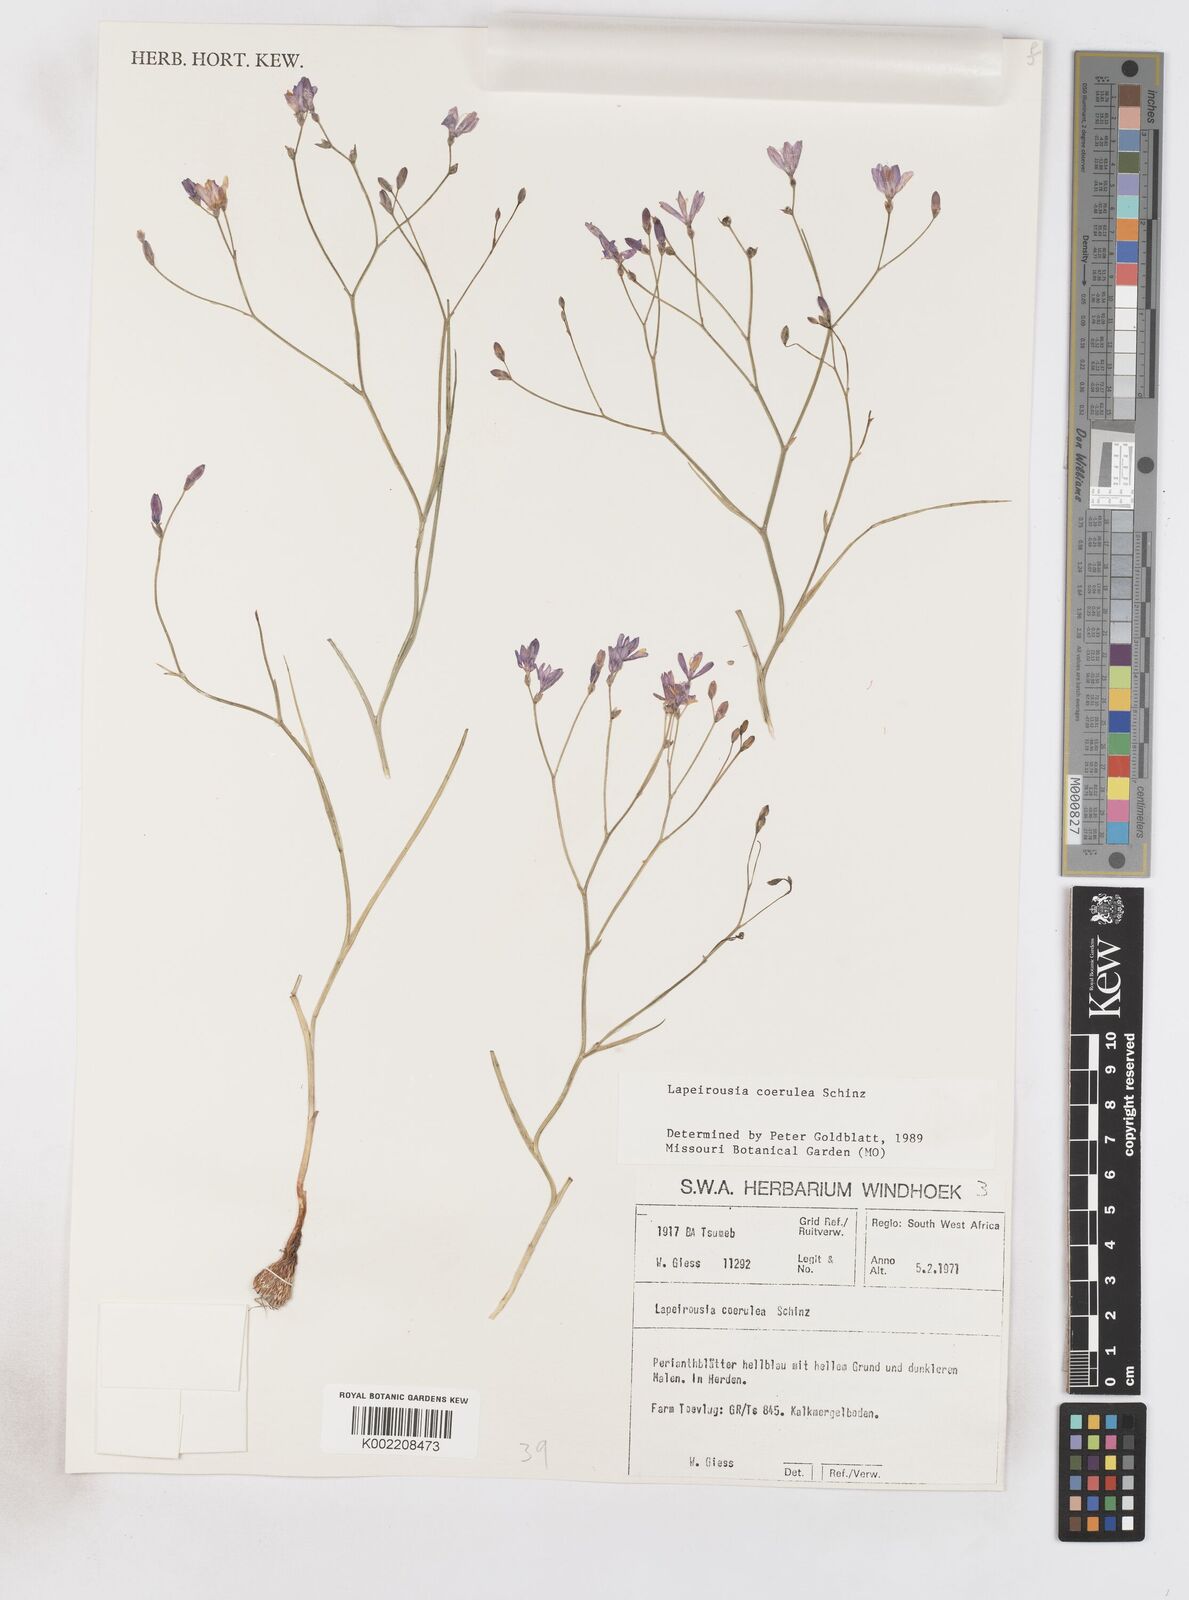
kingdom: Plantae
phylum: Tracheophyta
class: Liliopsida
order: Asparagales
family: Iridaceae
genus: Afrosolen
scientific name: Afrosolen coeruleus
